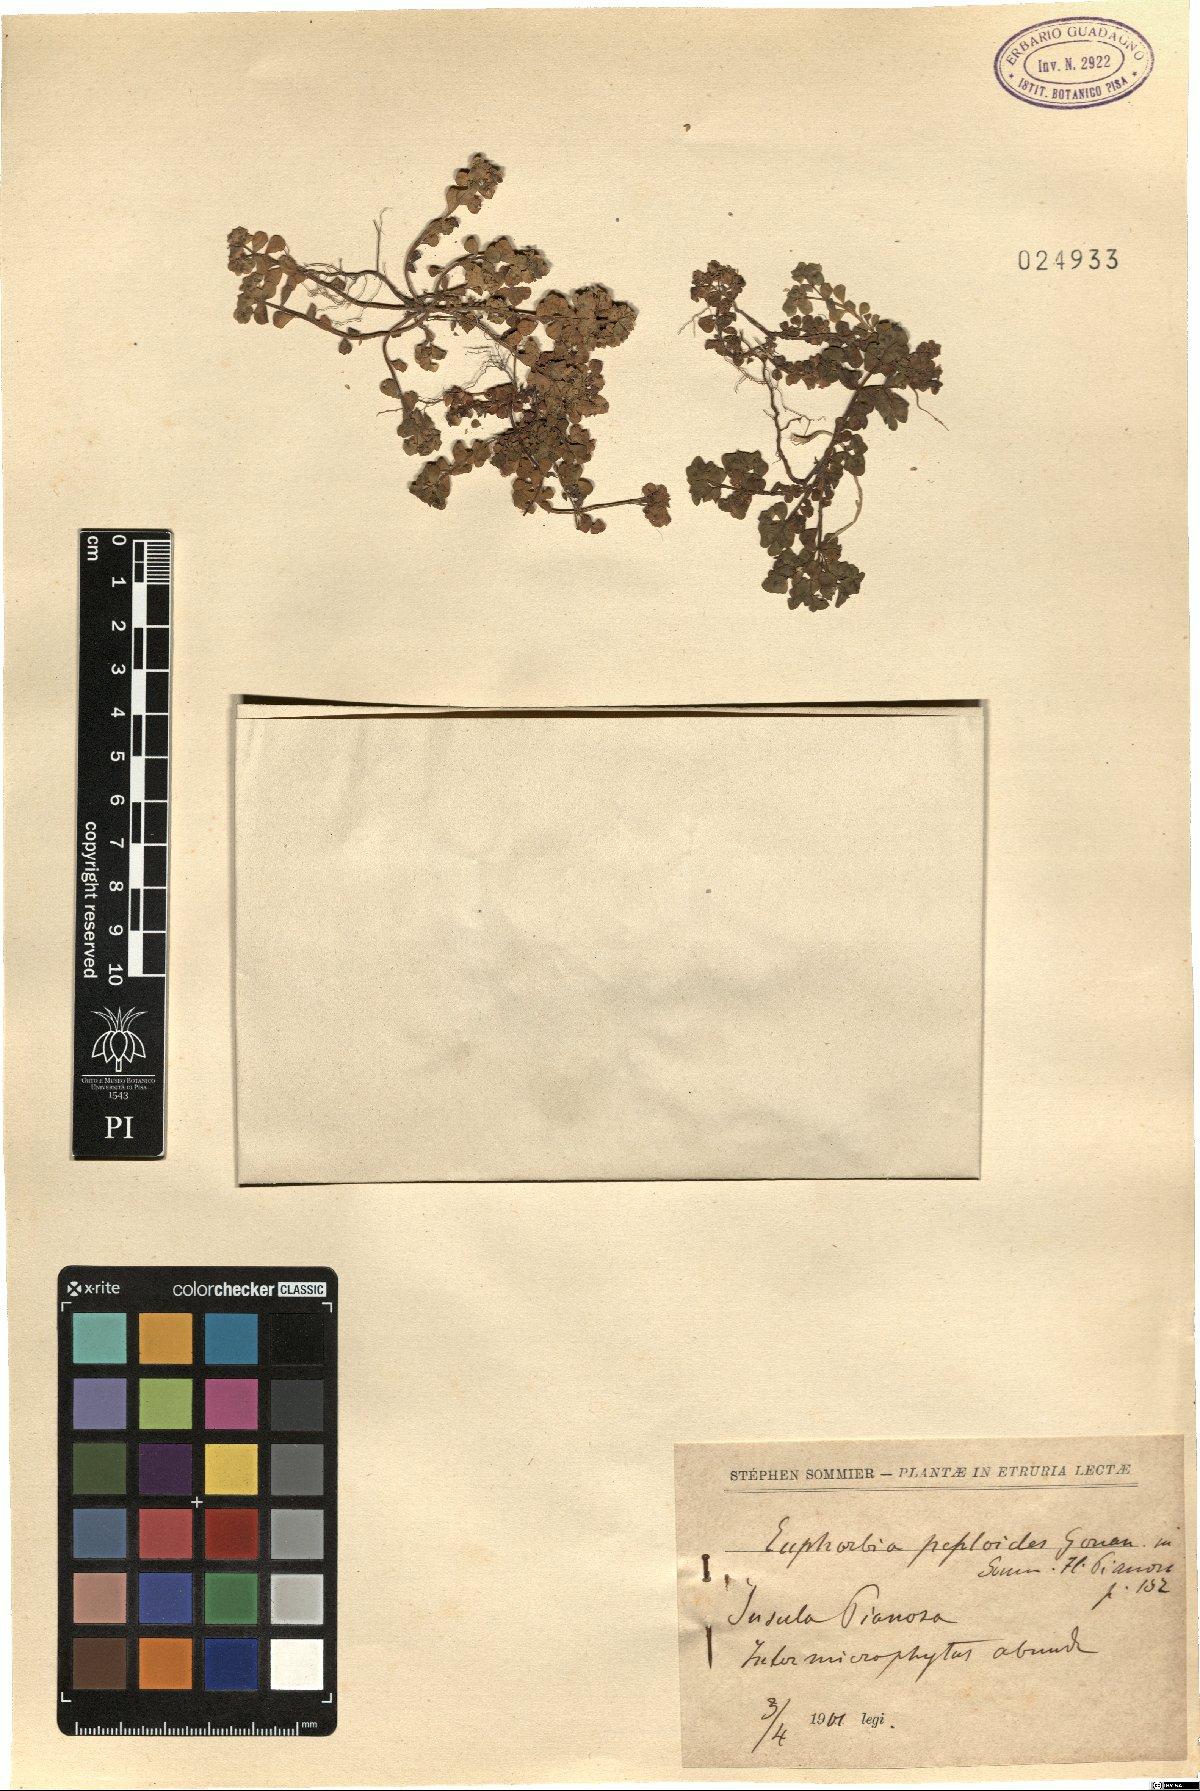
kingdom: Plantae
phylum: Tracheophyta
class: Magnoliopsida
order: Malpighiales
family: Euphorbiaceae
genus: Euphorbia
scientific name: Euphorbia peplus
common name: Petty spurge
